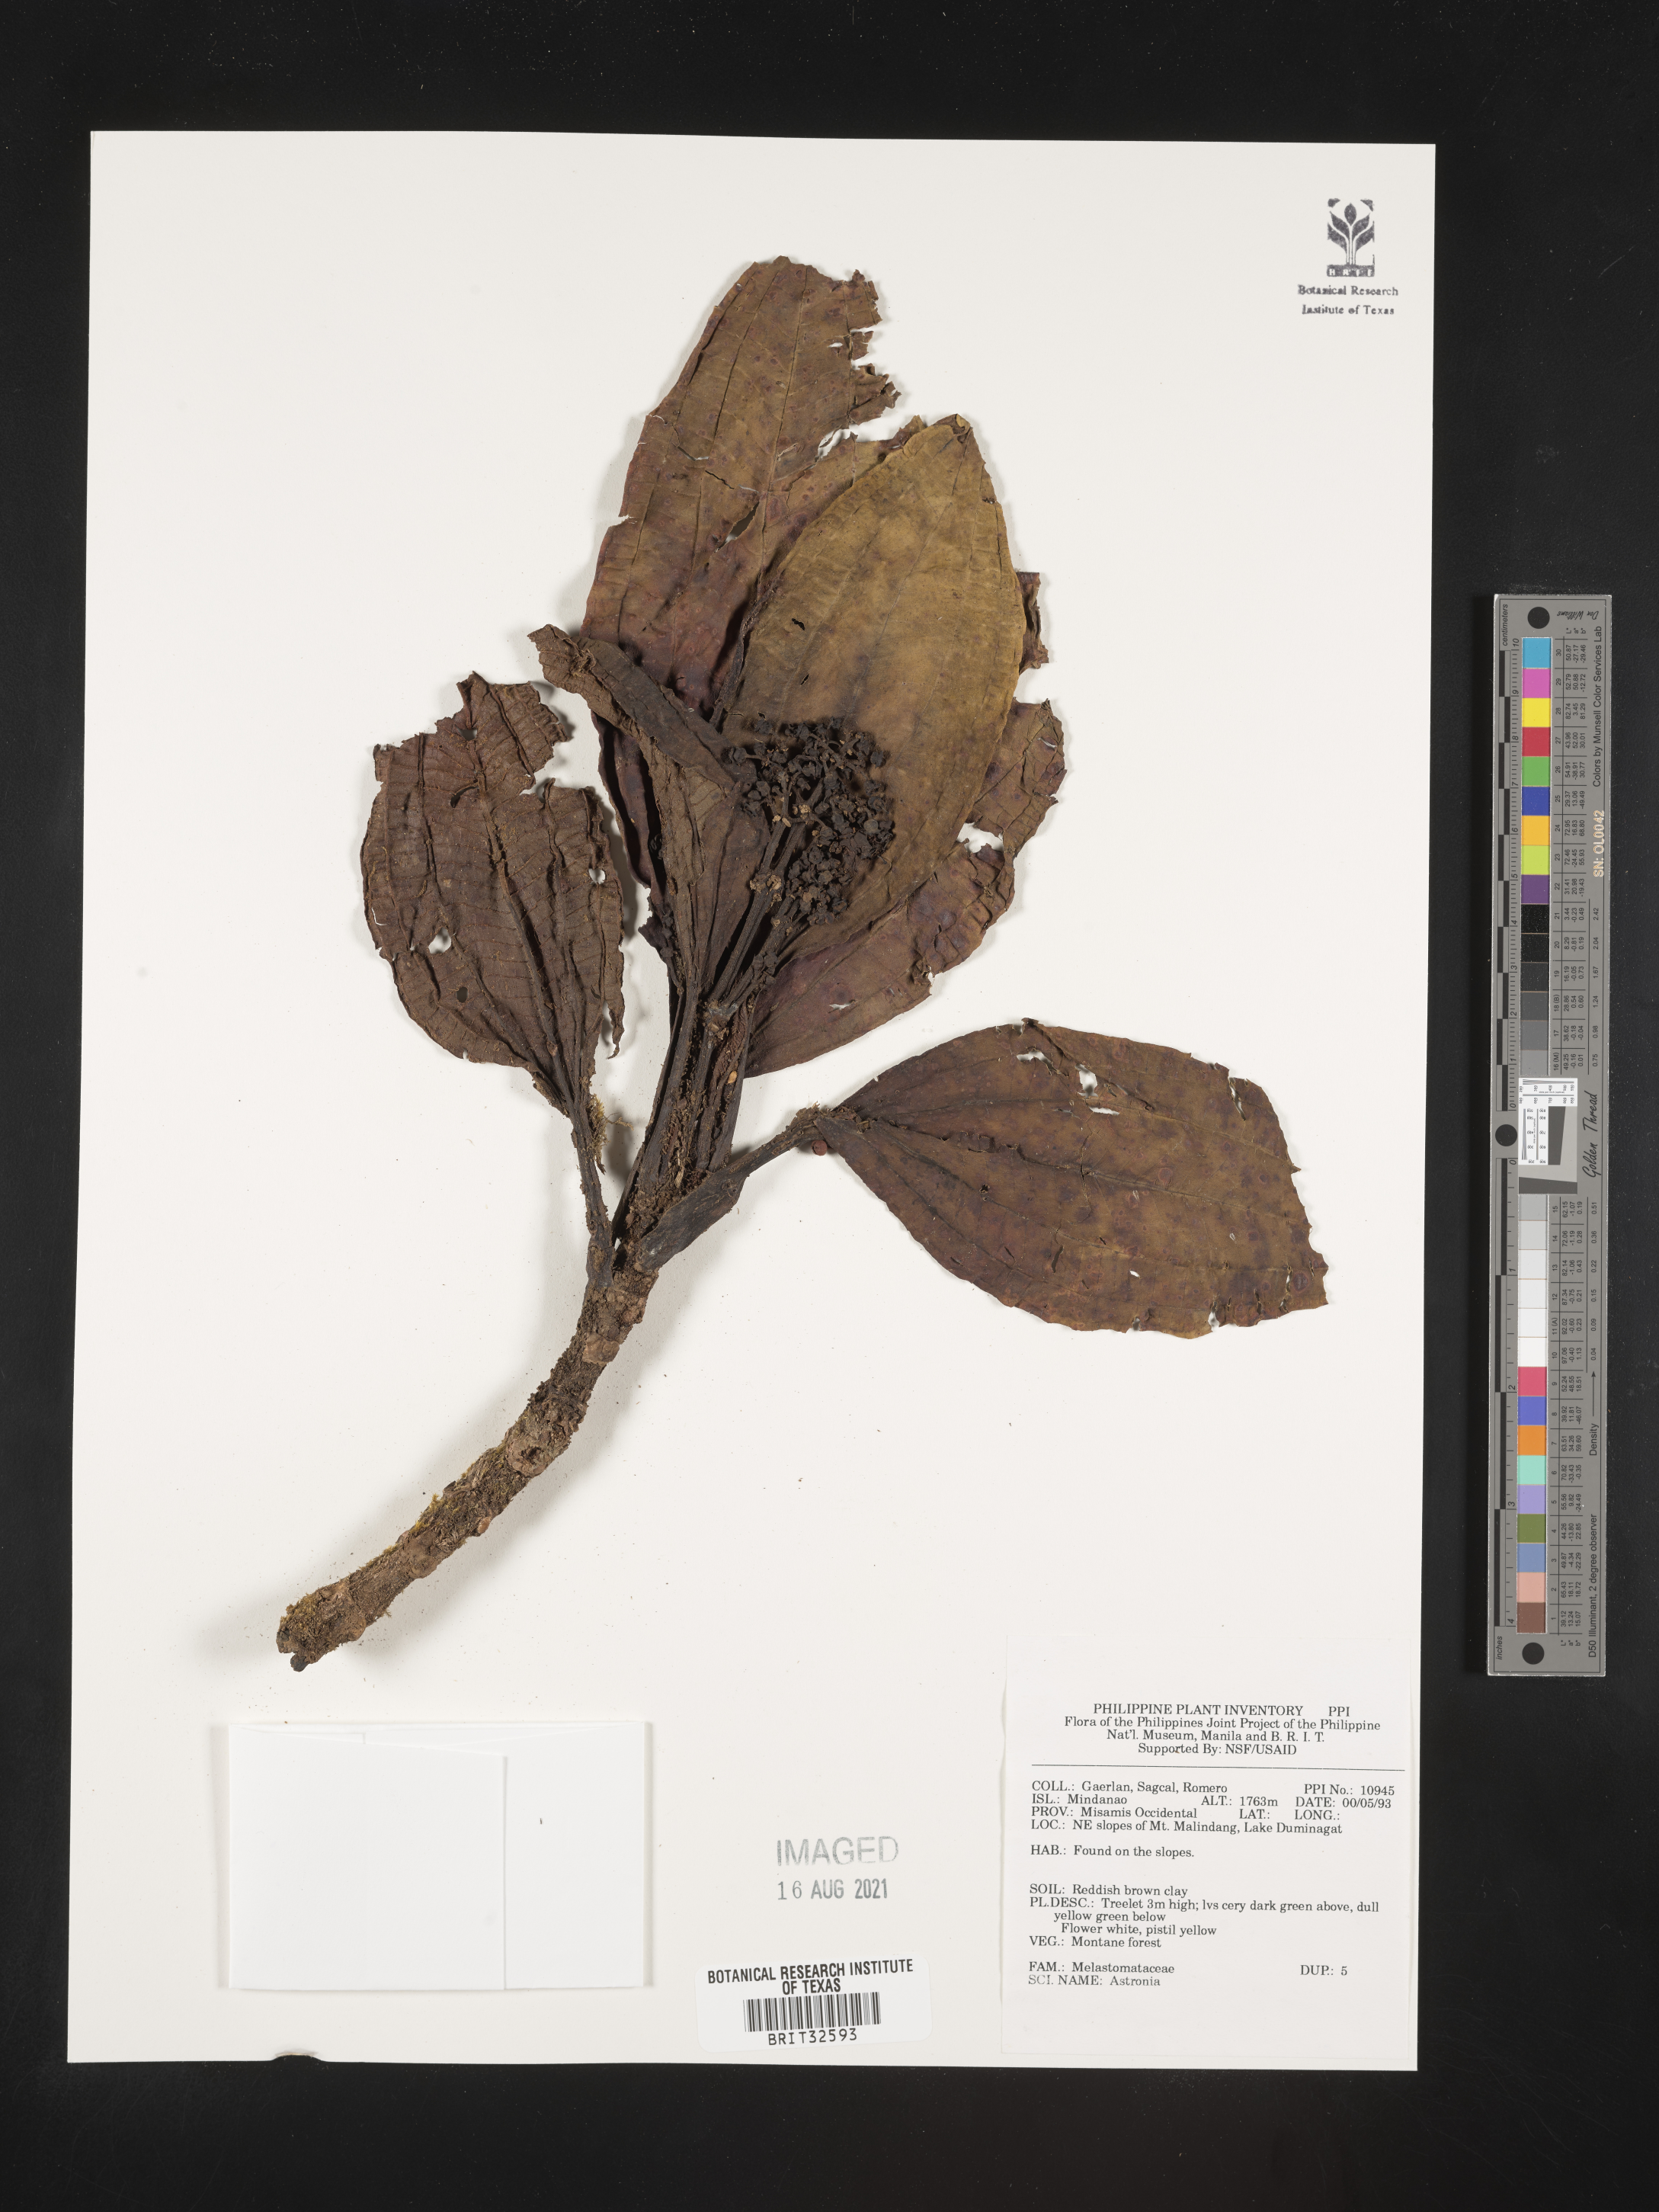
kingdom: Plantae
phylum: Tracheophyta
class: Magnoliopsida
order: Myrtales
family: Melastomataceae
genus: Astronia
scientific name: Astronia
